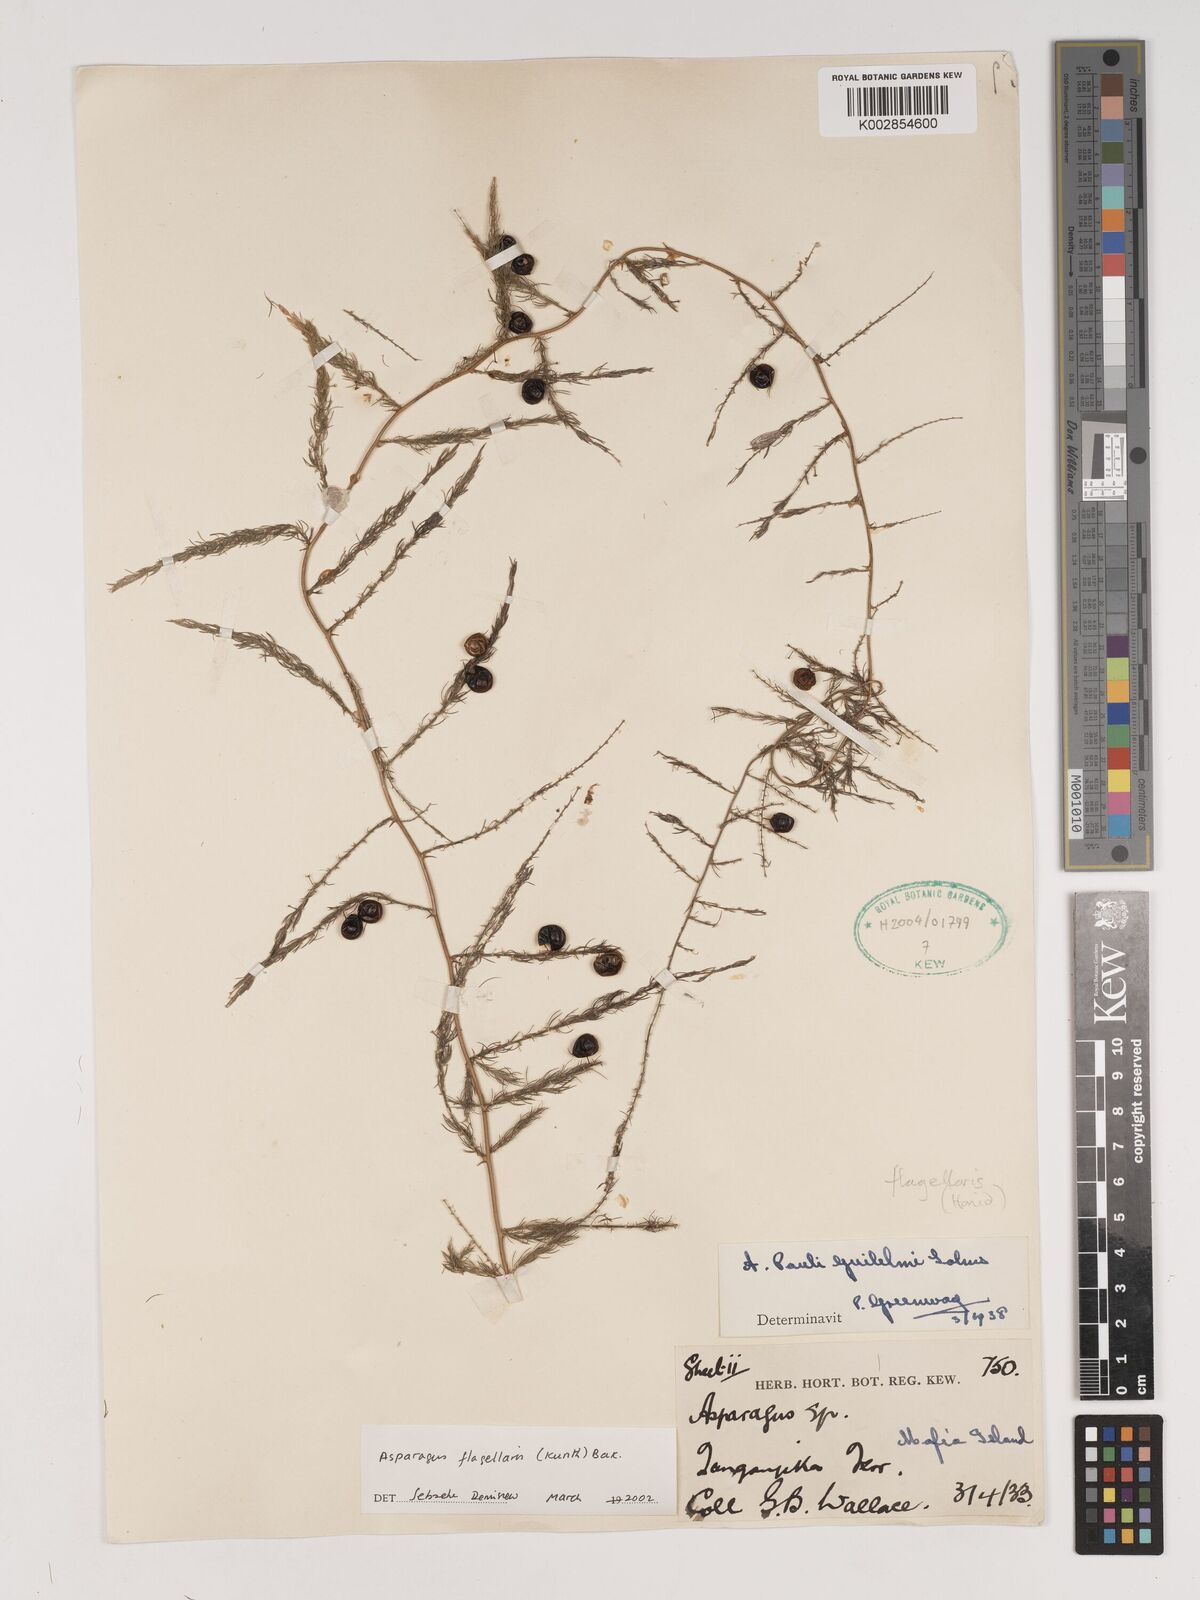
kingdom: Plantae
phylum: Tracheophyta
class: Liliopsida
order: Asparagales
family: Asparagaceae
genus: Asparagus
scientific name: Asparagus flagellaris
